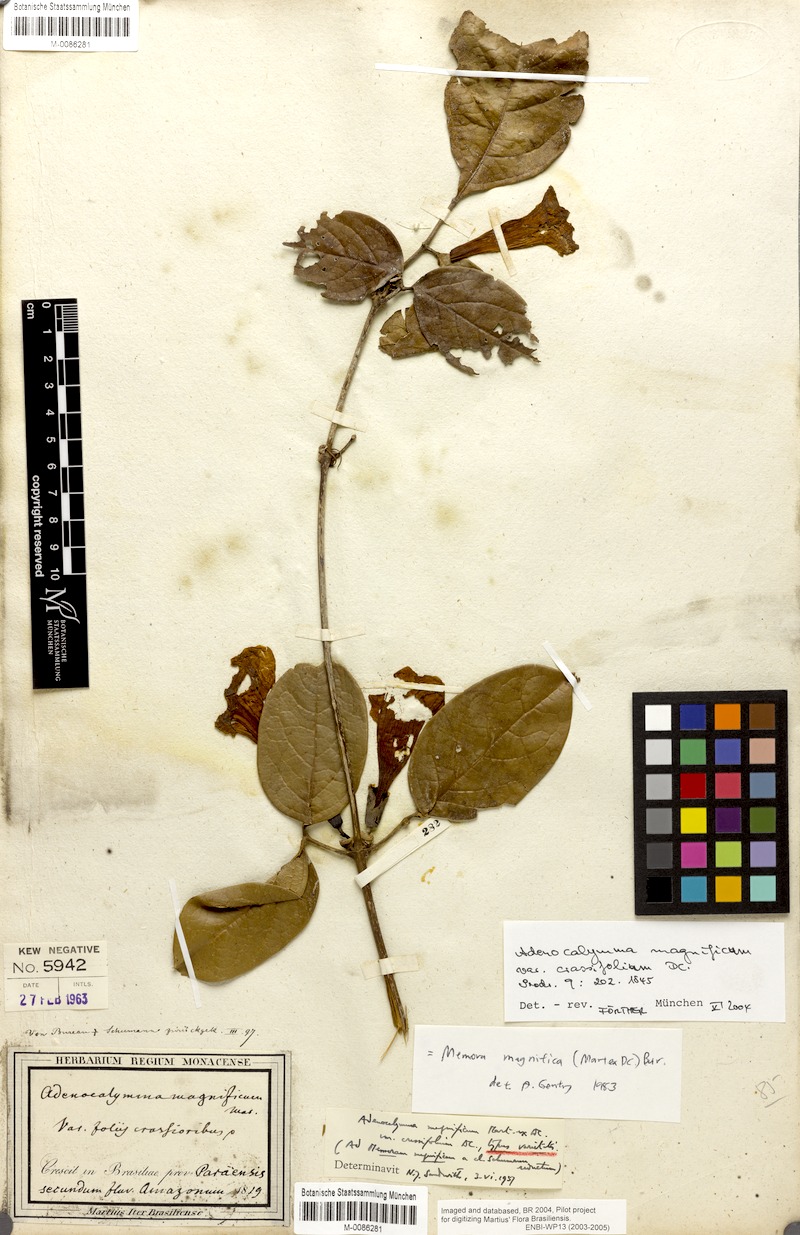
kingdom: Plantae
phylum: Tracheophyta
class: Magnoliopsida
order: Lamiales
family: Bignoniaceae
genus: Adenocalymma
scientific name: Adenocalymma magnificum
